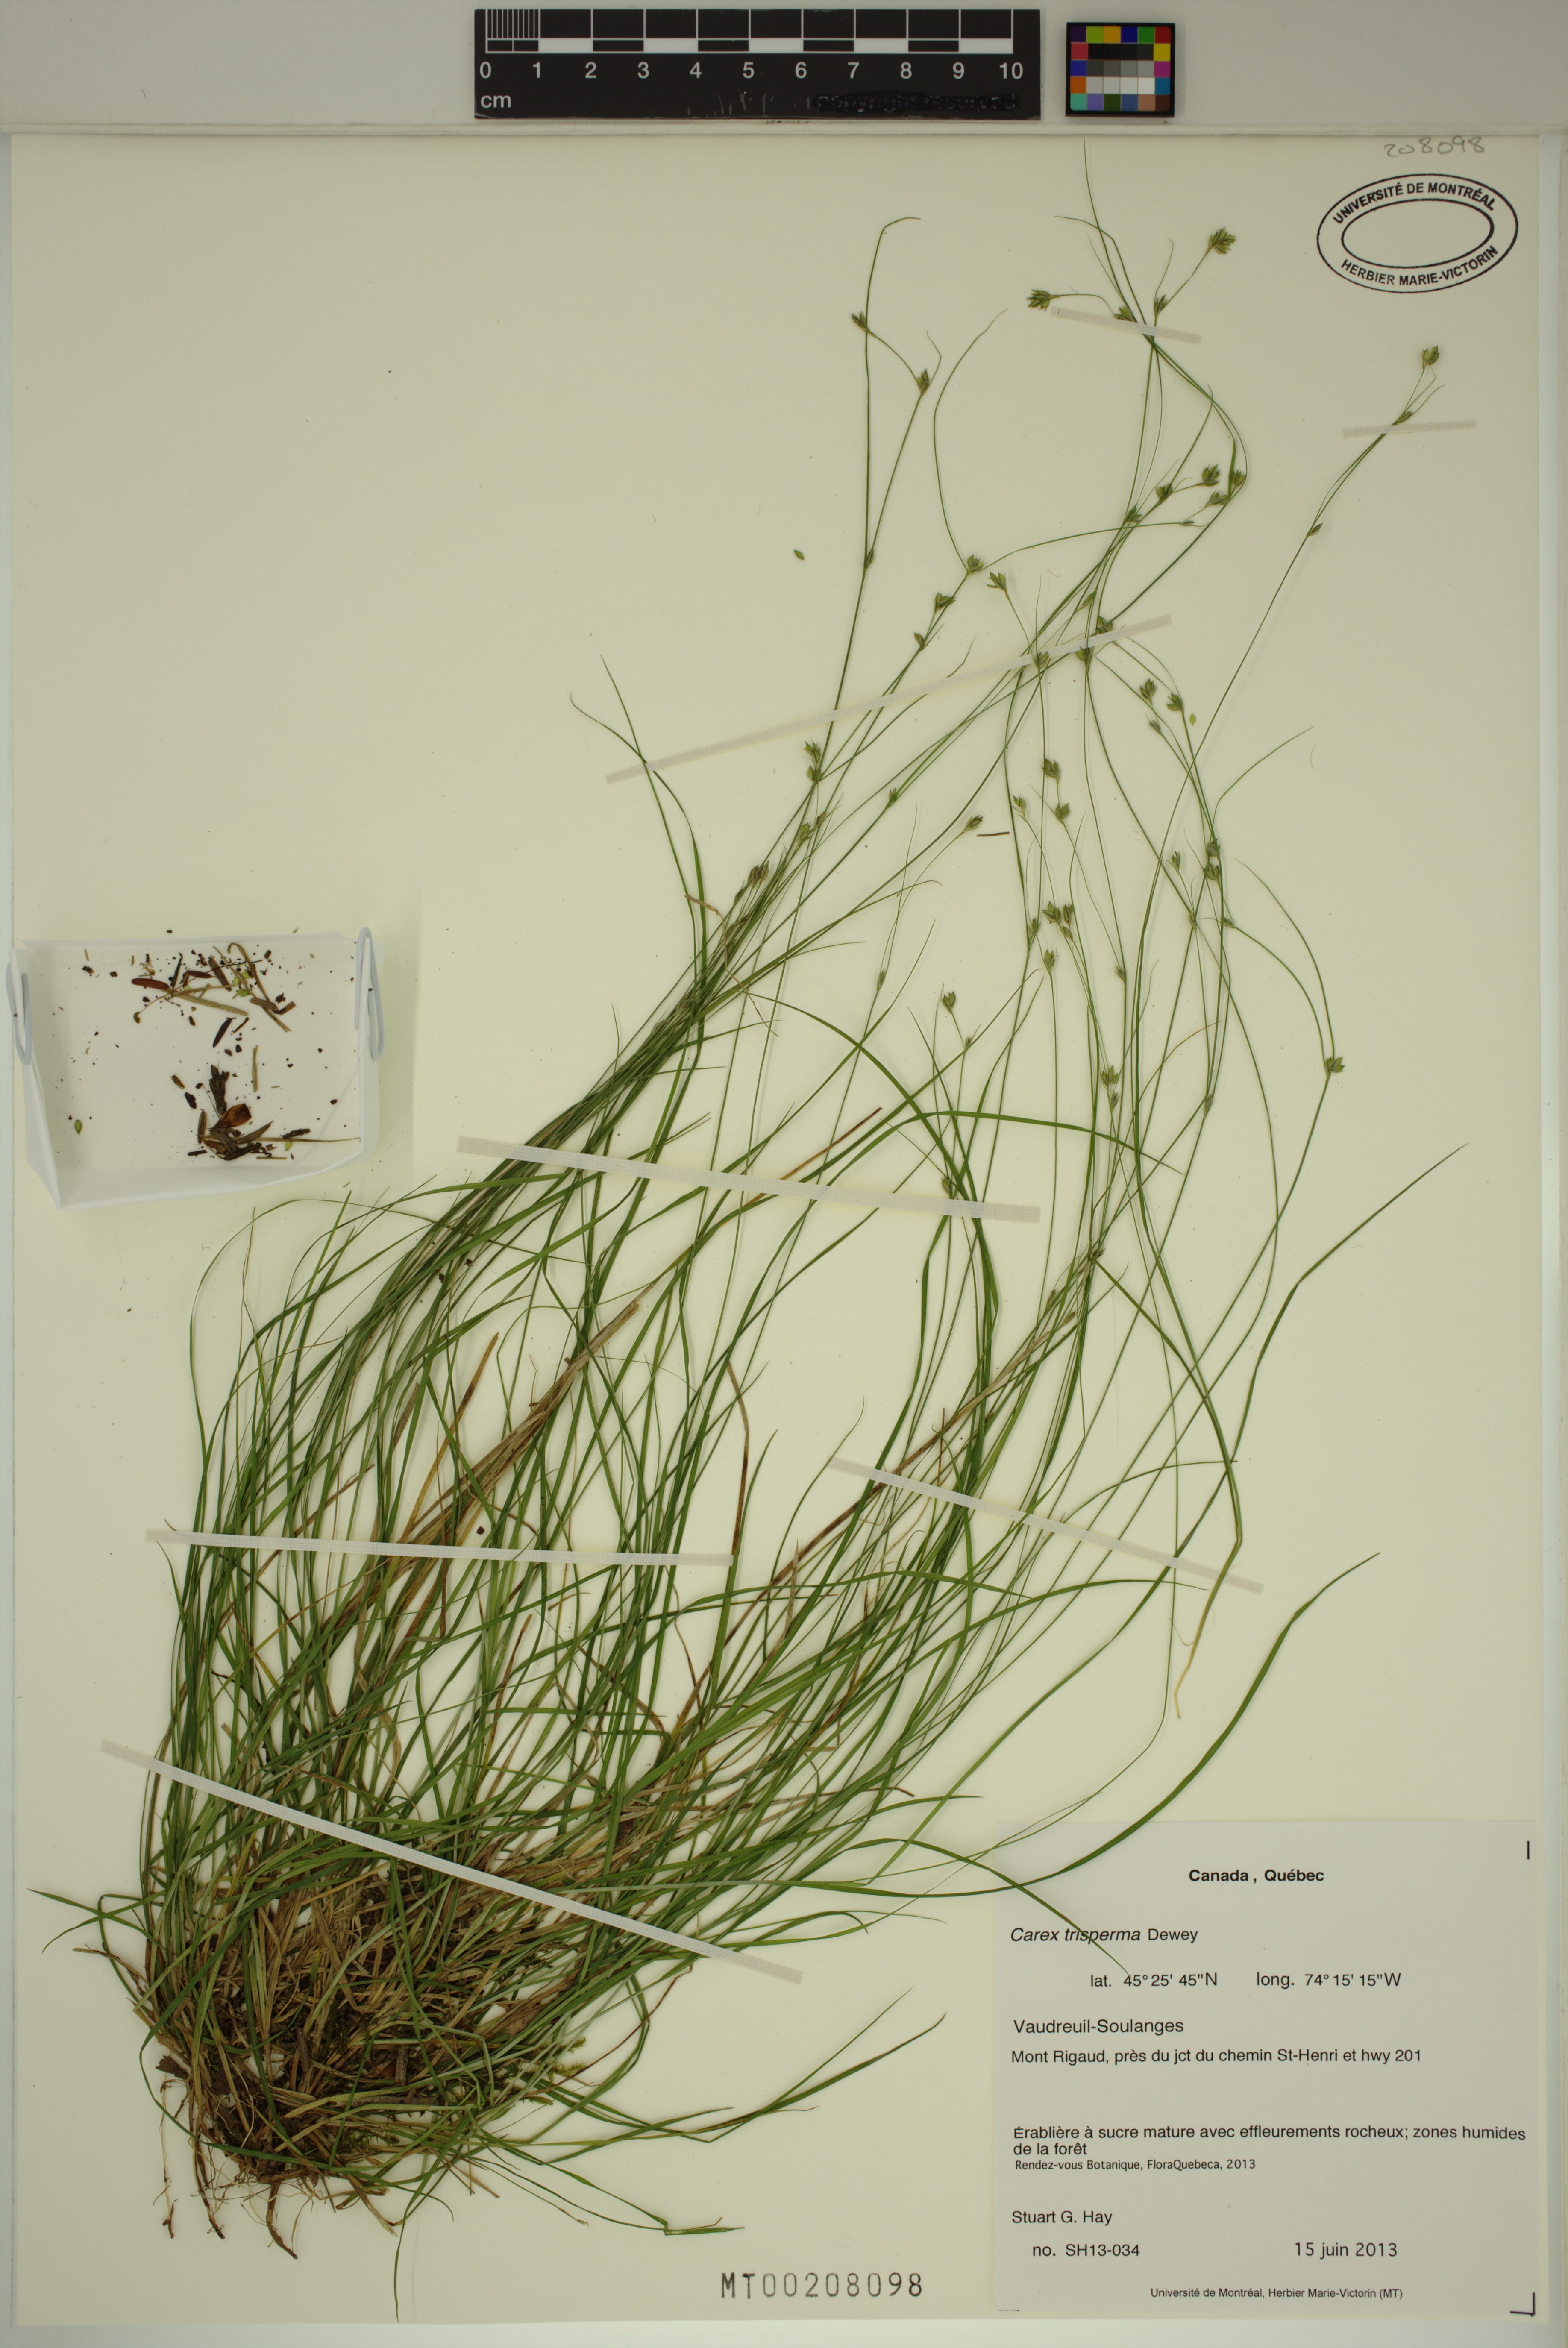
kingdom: Plantae
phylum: Tracheophyta
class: Liliopsida
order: Poales
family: Cyperaceae
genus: Carex
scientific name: Carex trisperma
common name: Three-seeded sedge
